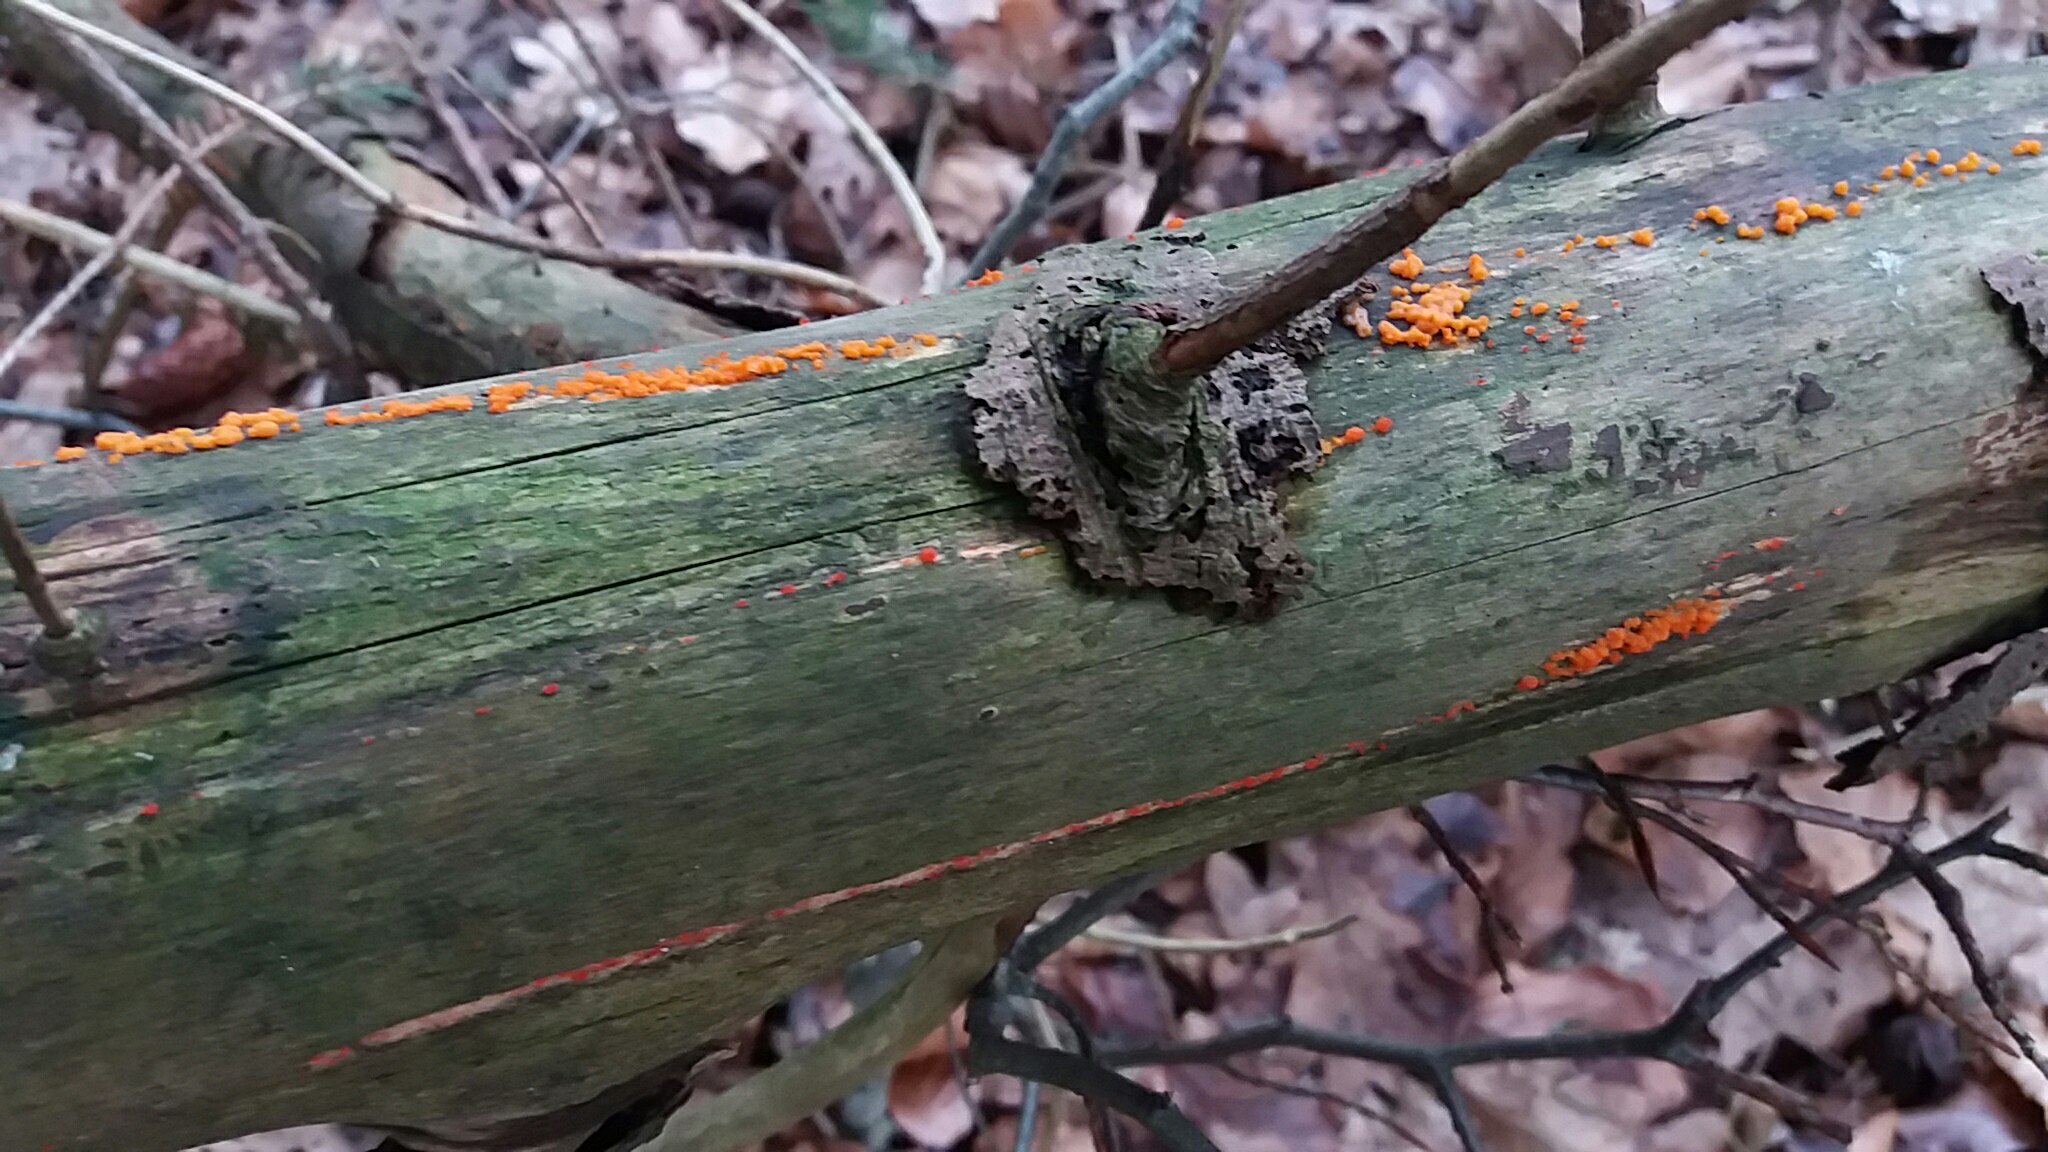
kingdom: Fungi
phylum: Basidiomycota
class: Dacrymycetes
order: Dacrymycetales
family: Dacrymycetaceae
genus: Dacrymyces
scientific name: Dacrymyces stillatus
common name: almindelig tåresvamp
